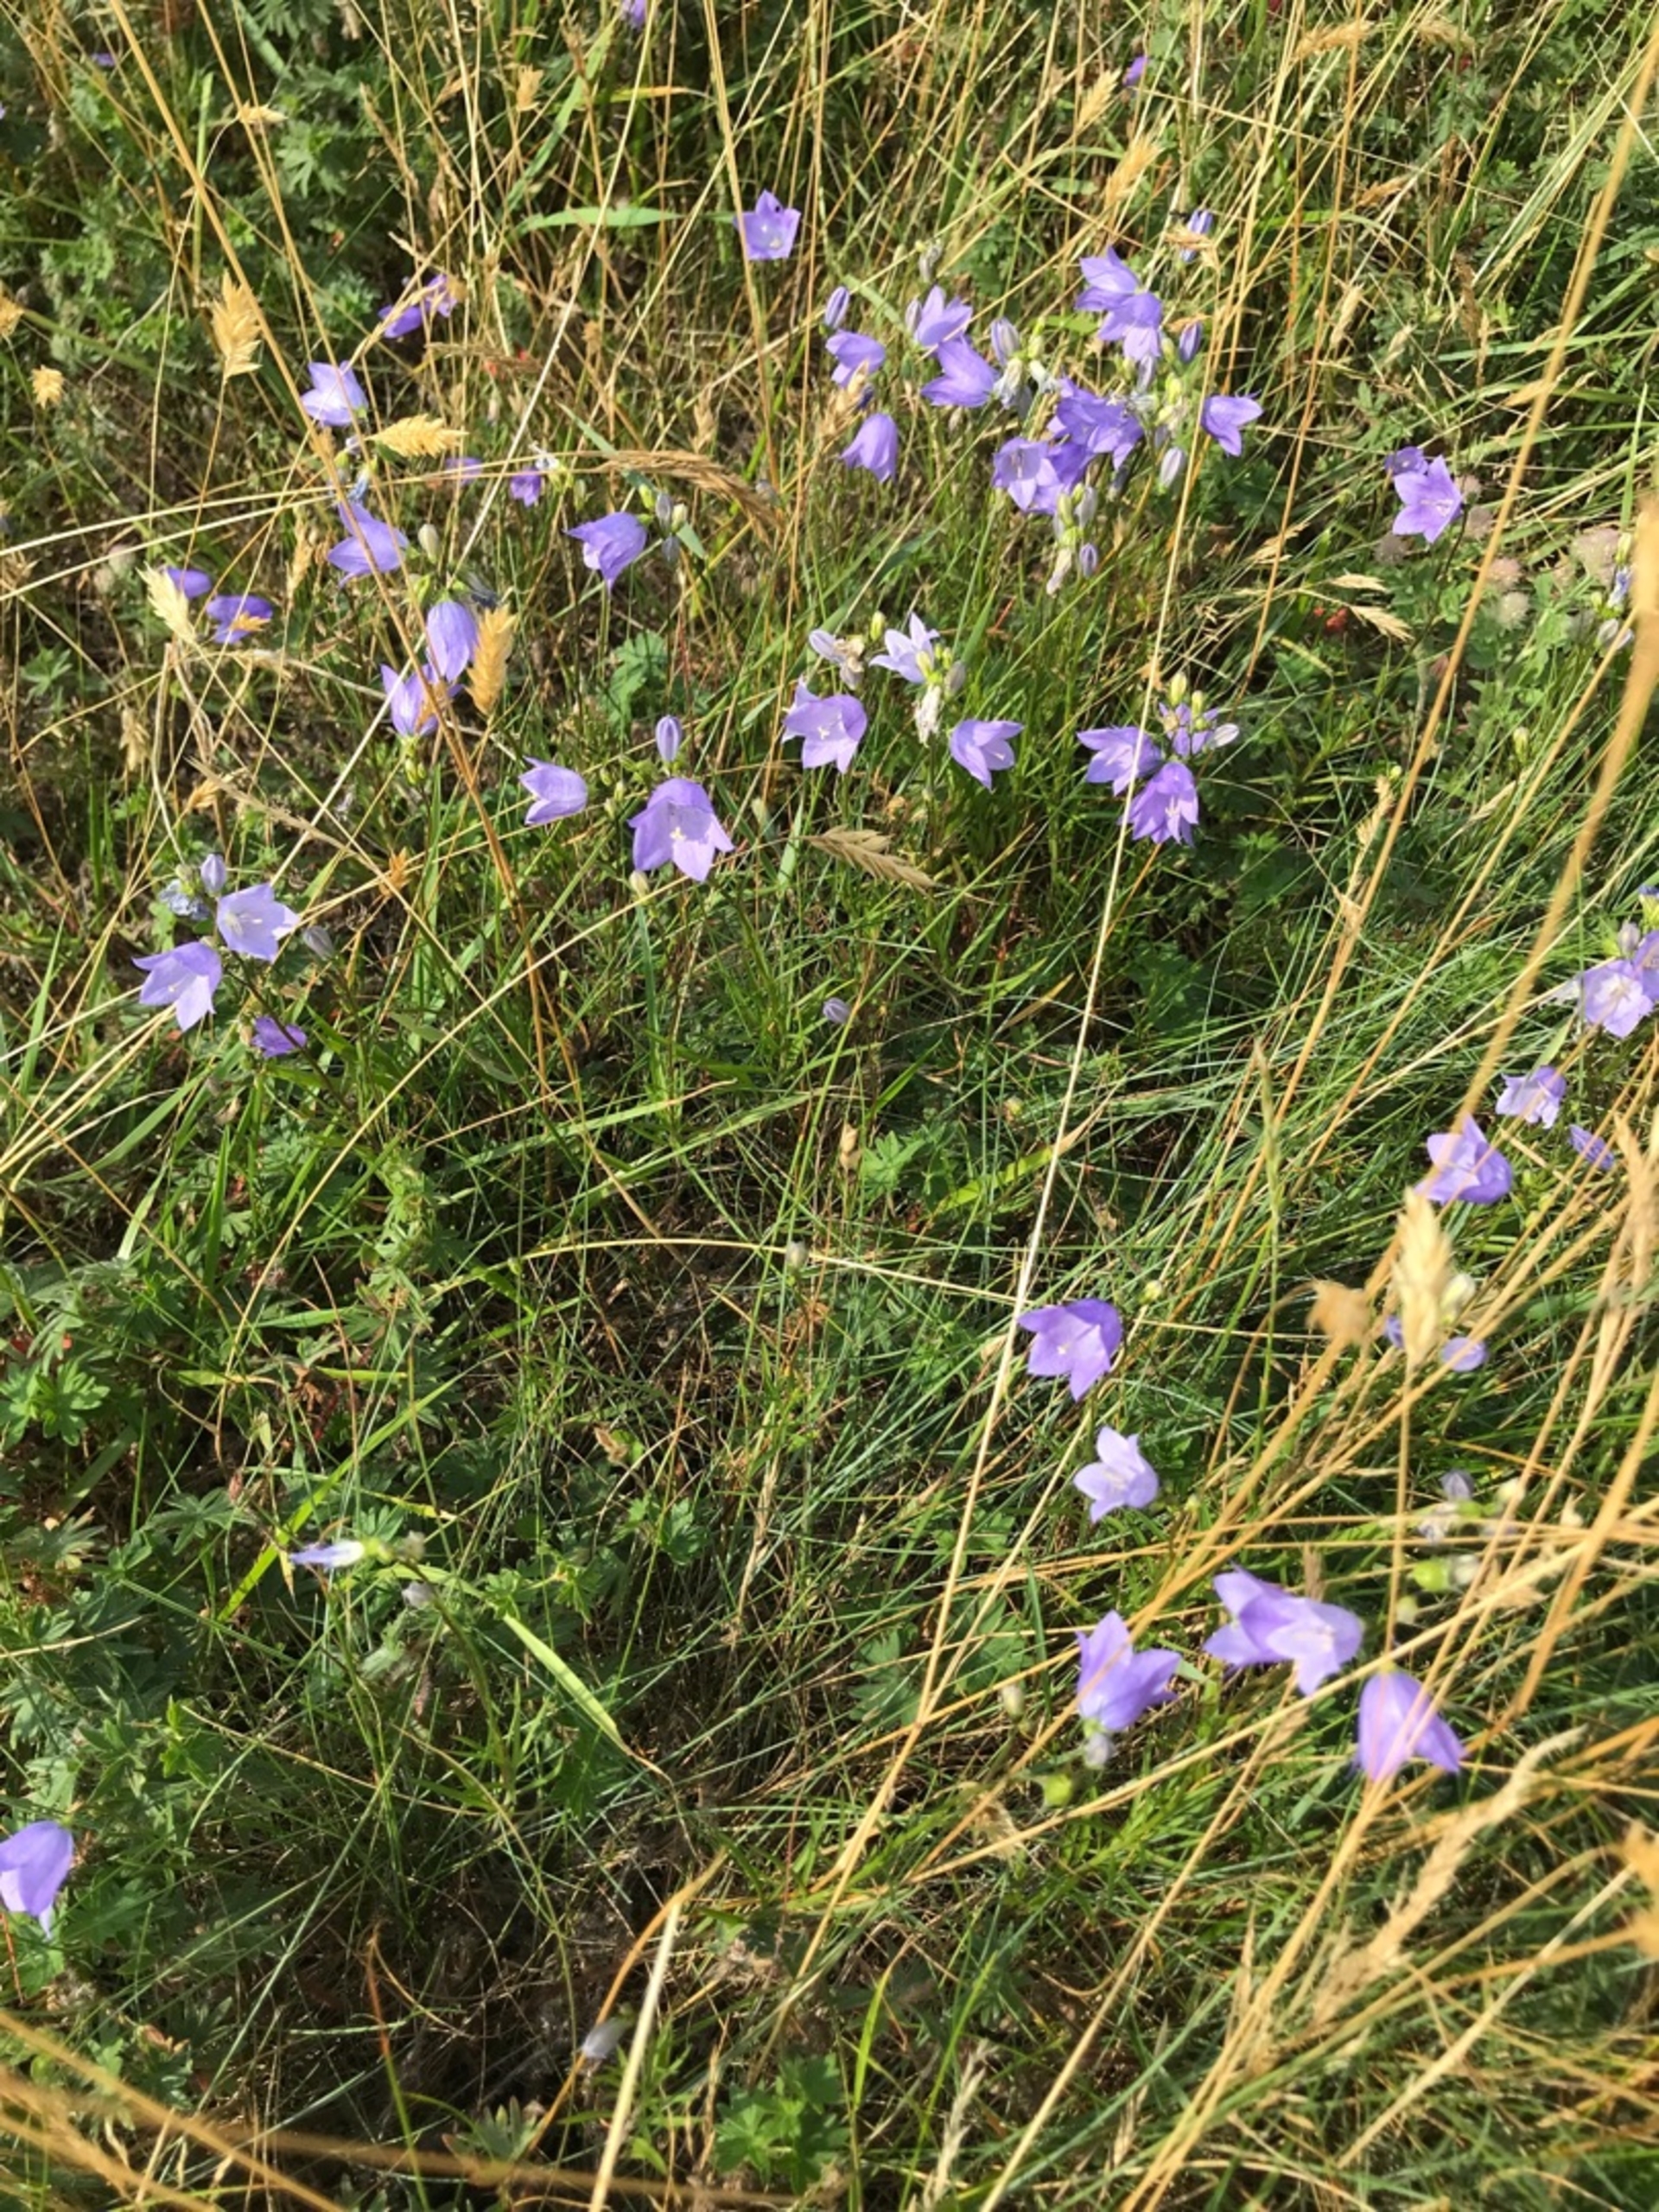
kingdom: Plantae
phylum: Tracheophyta
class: Magnoliopsida
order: Asterales
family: Campanulaceae
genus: Campanula
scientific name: Campanula rotundifolia
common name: Liden klokke
